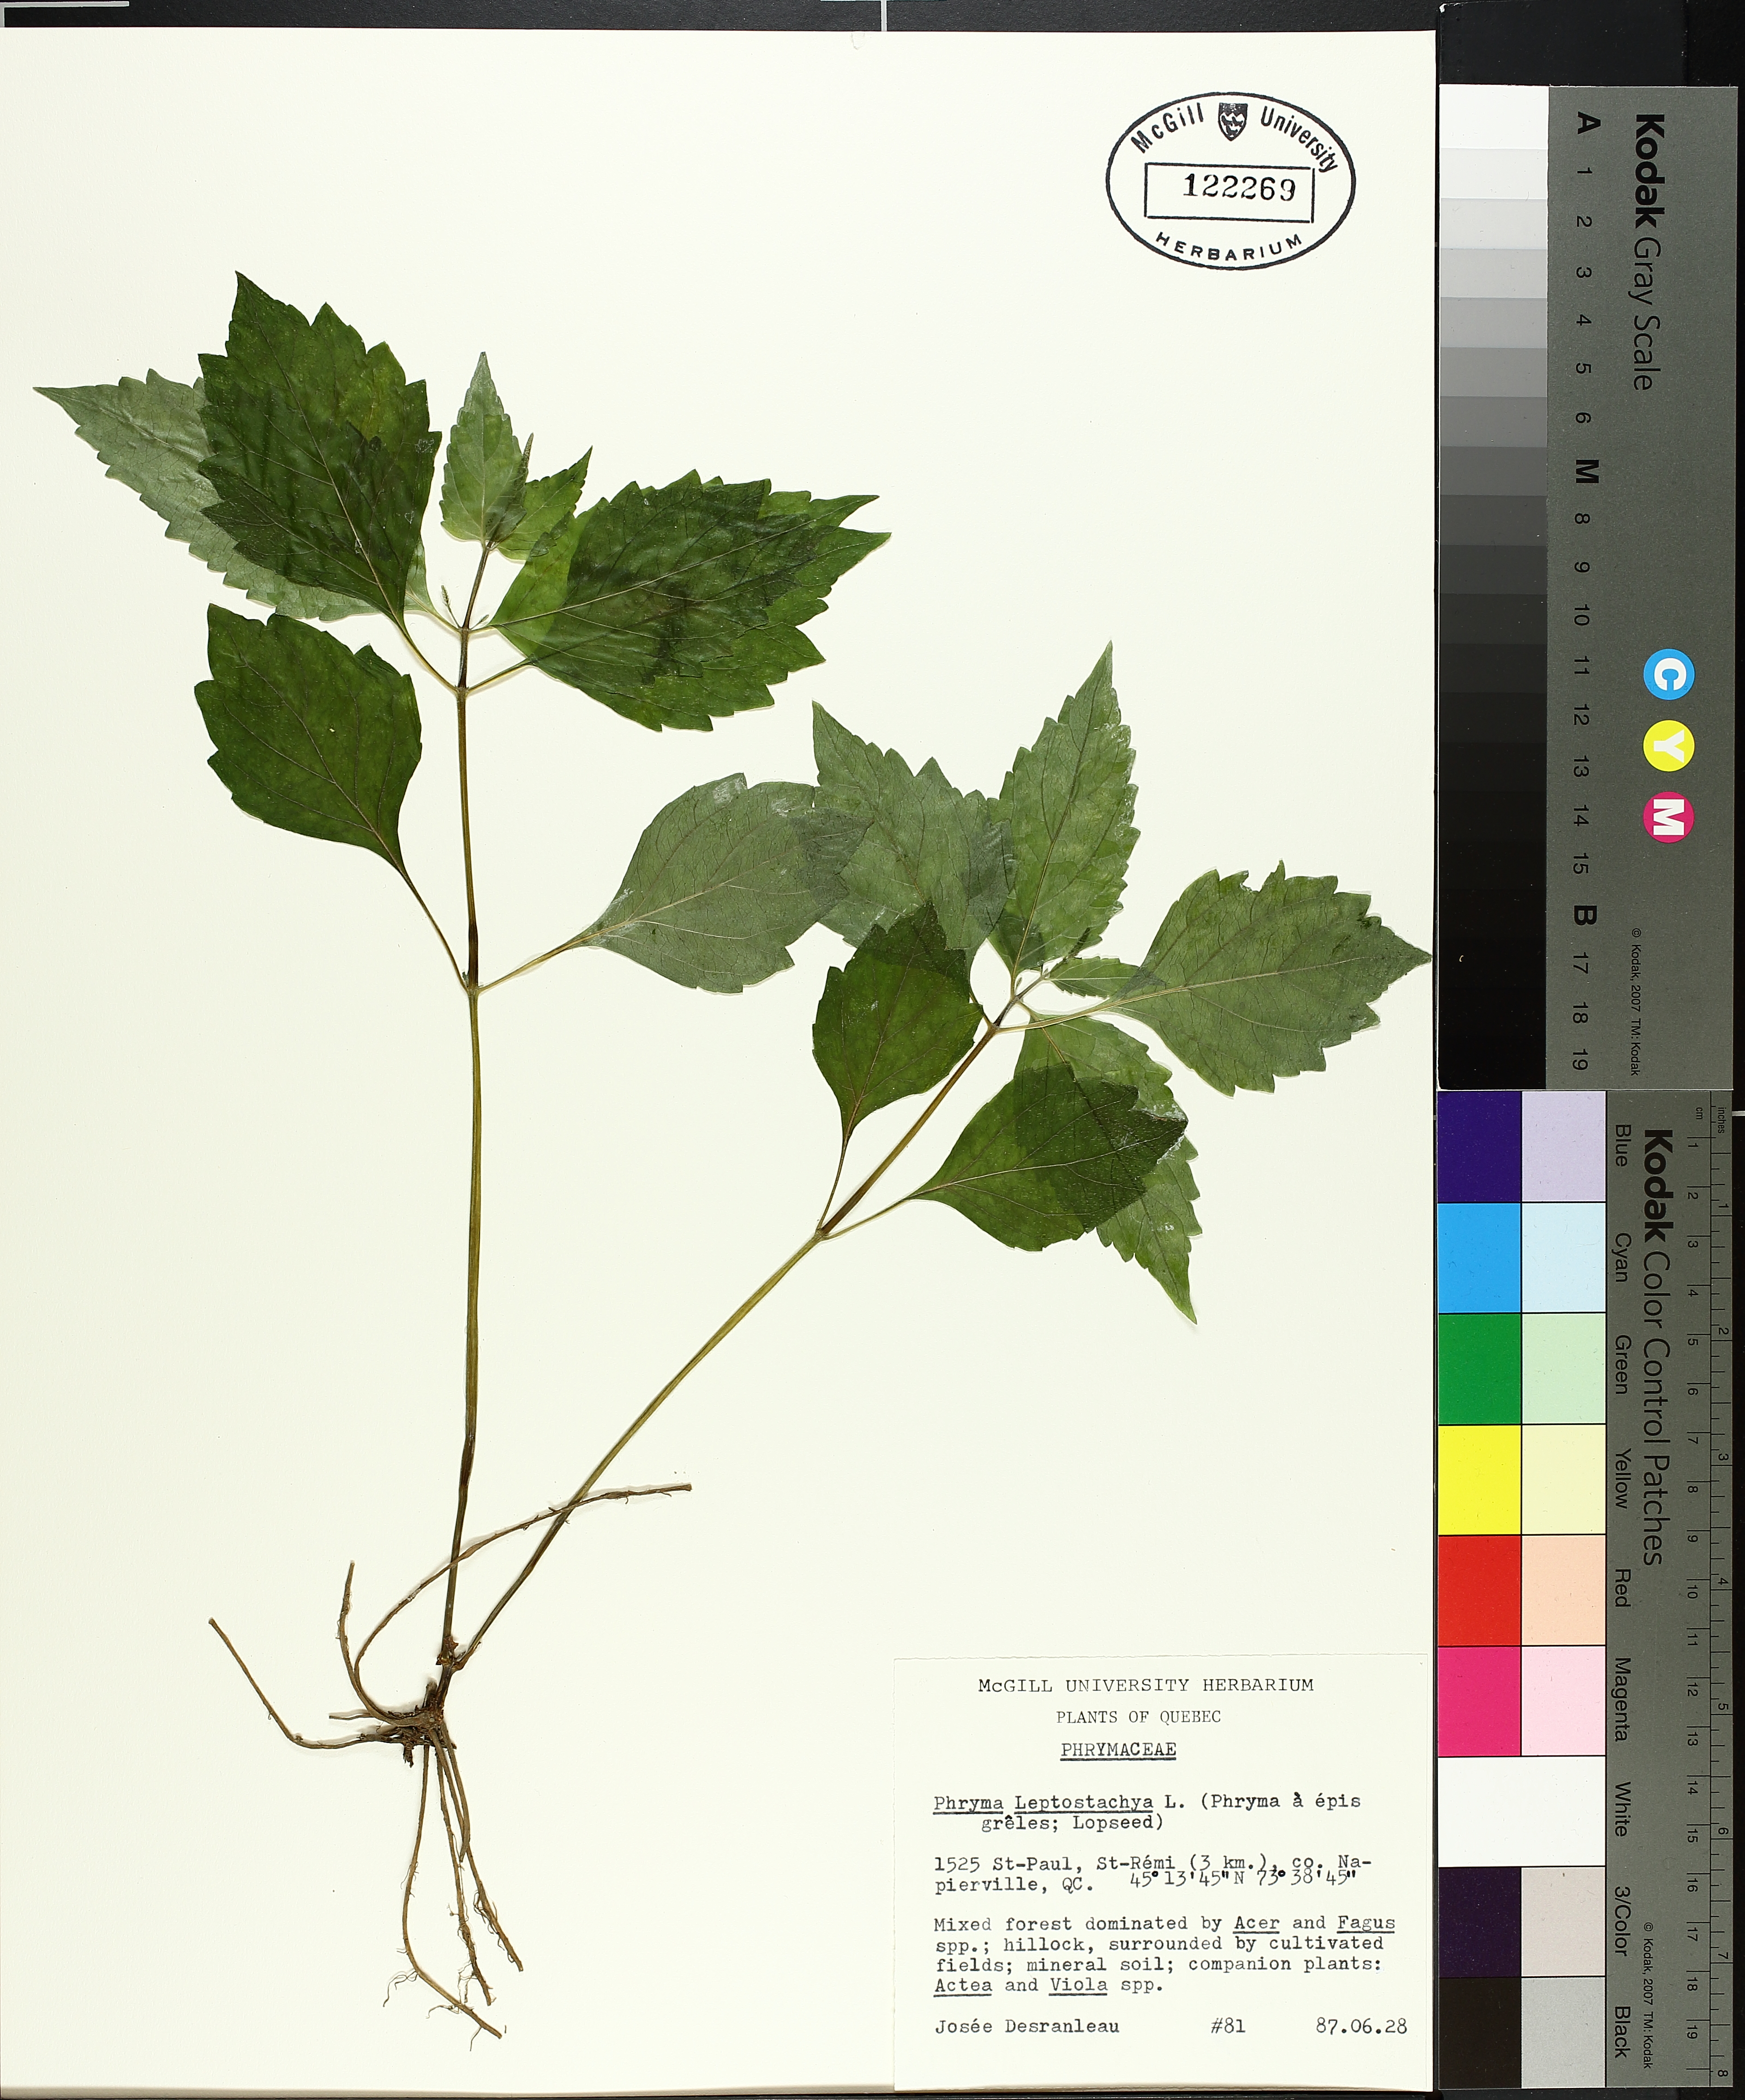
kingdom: Plantae
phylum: Tracheophyta
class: Magnoliopsida
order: Caryophyllales
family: Polygonaceae
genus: Rumex
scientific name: Rumex acetosella
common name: Common sheep sorrel
